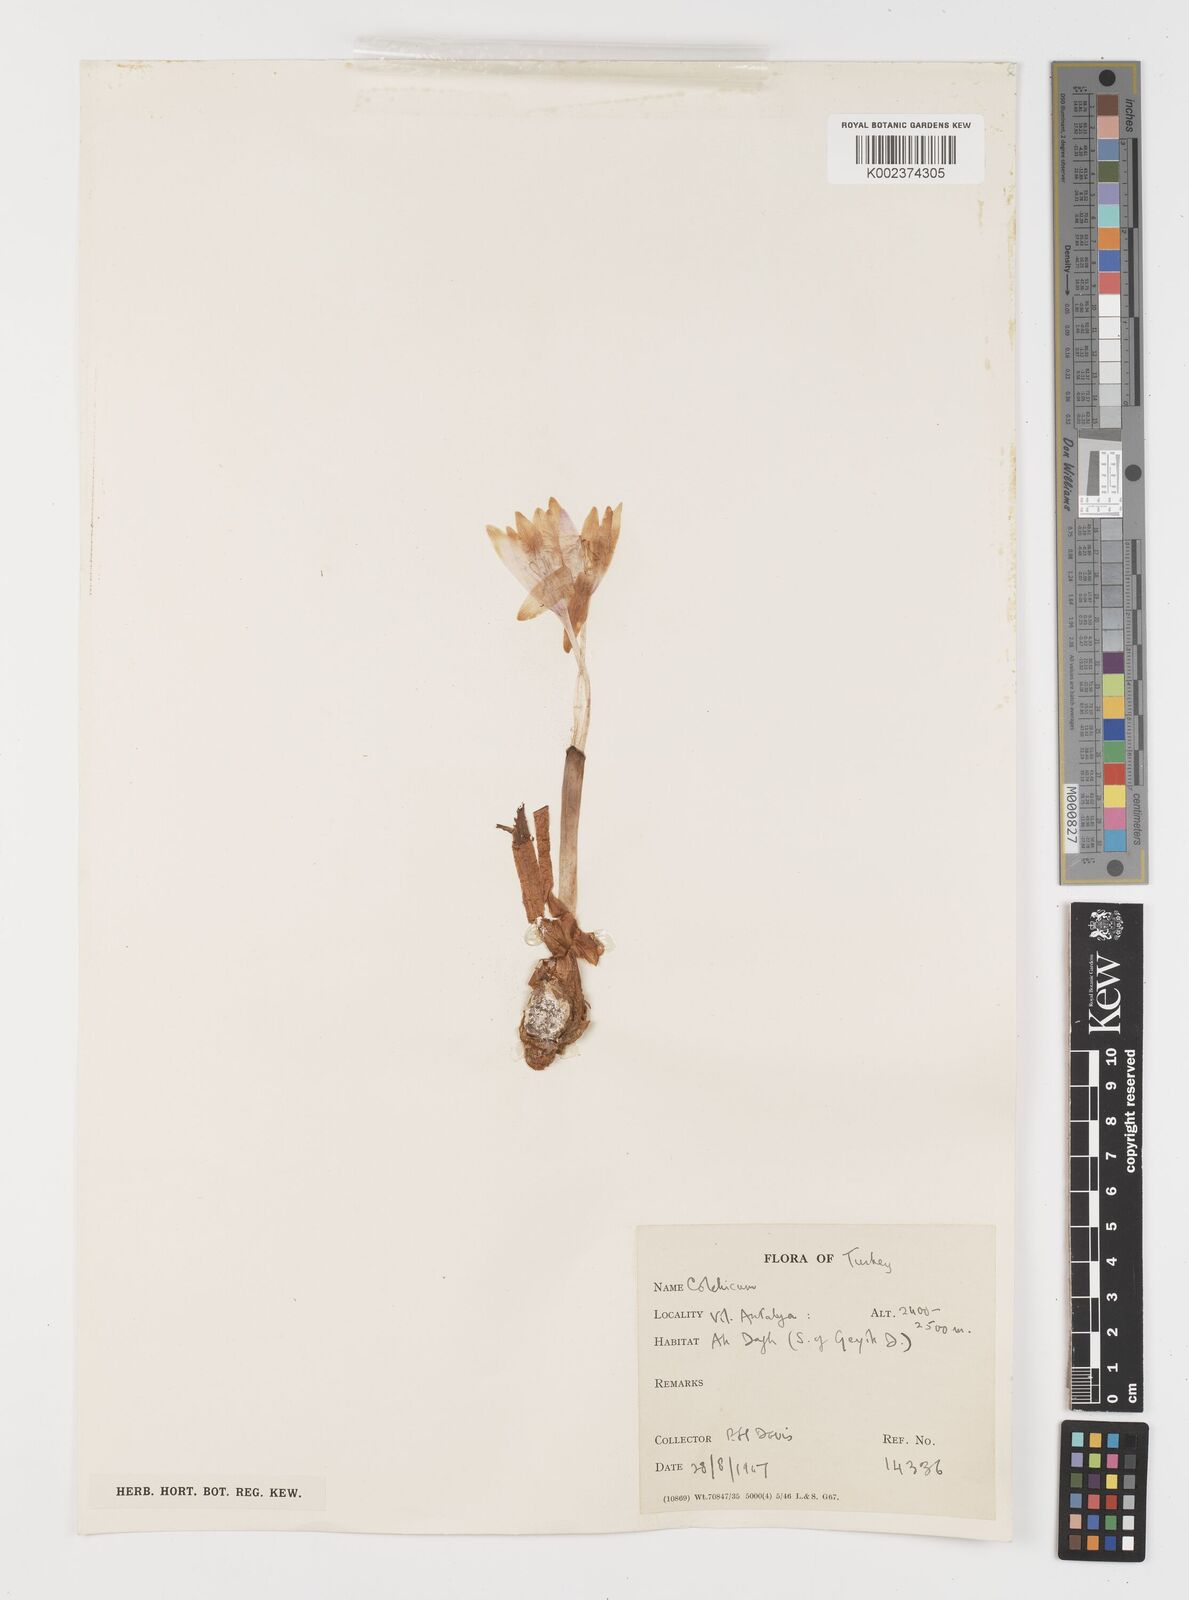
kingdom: Plantae
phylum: Tracheophyta
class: Liliopsida
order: Liliales
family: Colchicaceae
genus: Colchicum
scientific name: Colchicum
